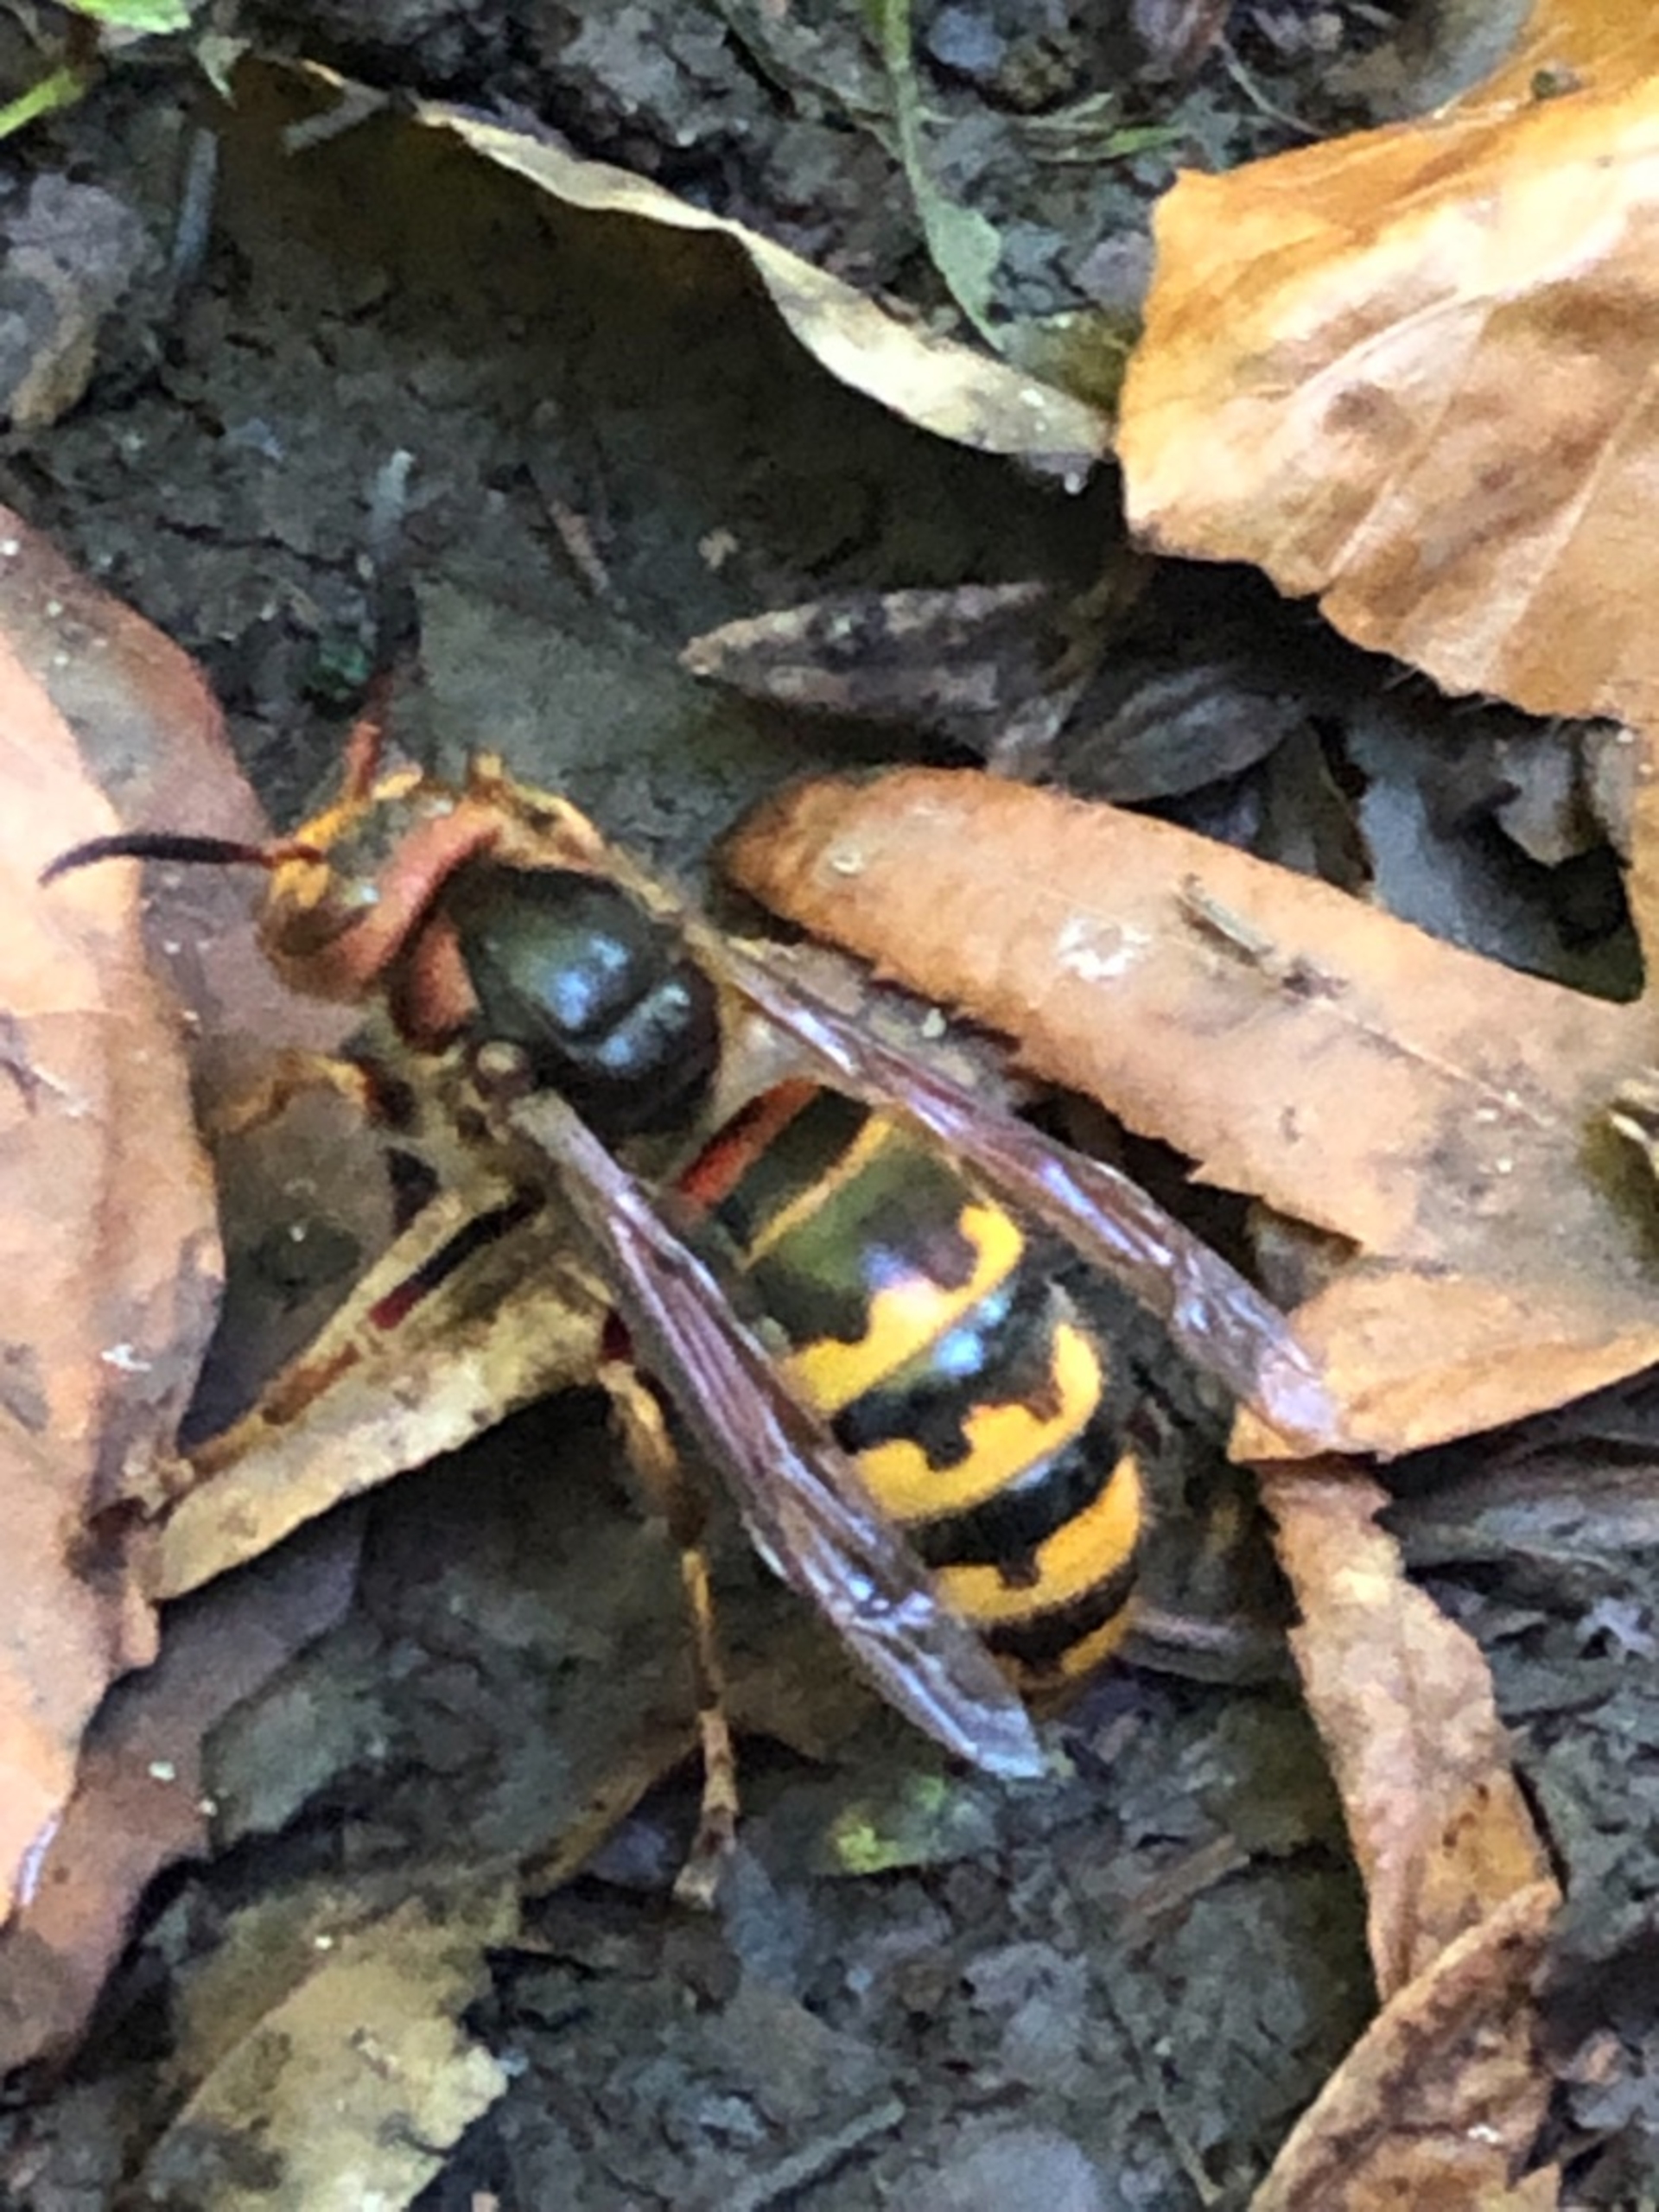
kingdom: Animalia
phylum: Arthropoda
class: Insecta
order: Hymenoptera
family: Vespidae
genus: Vespa
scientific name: Vespa crabro
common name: Stor gedehams
